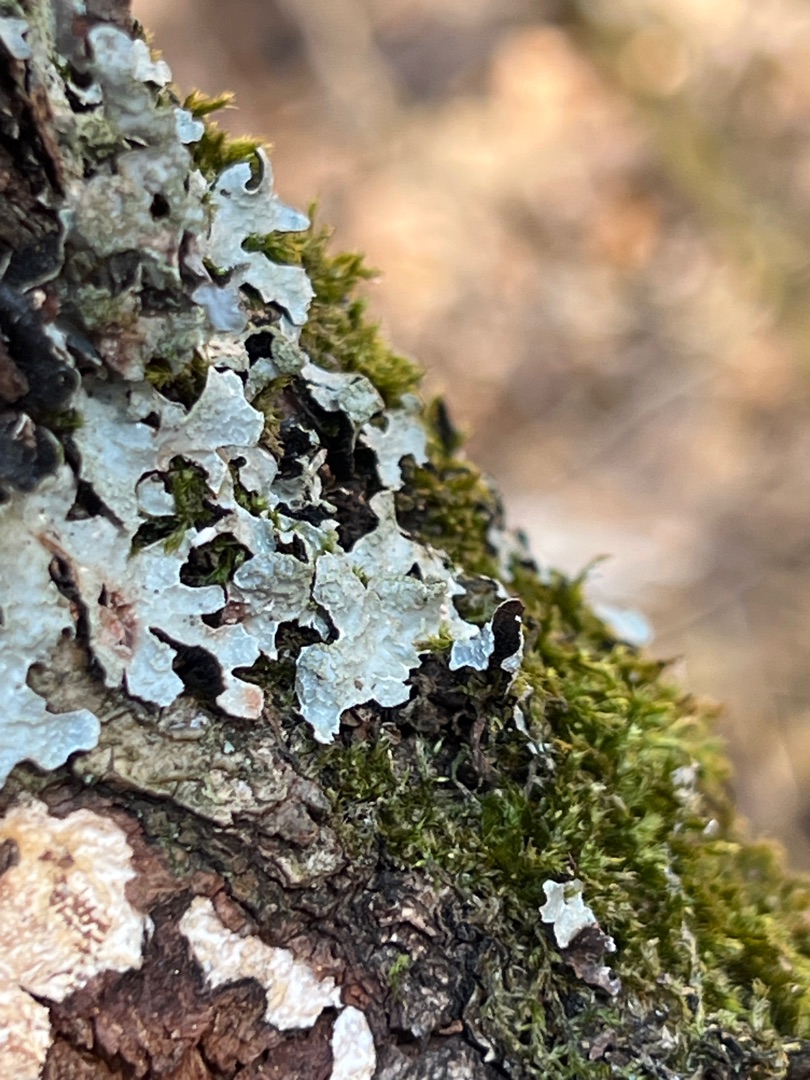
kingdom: Fungi
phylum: Ascomycota
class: Lecanoromycetes
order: Lecanorales
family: Parmeliaceae
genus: Parmelia
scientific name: Parmelia sulcata
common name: Rynket skållav
